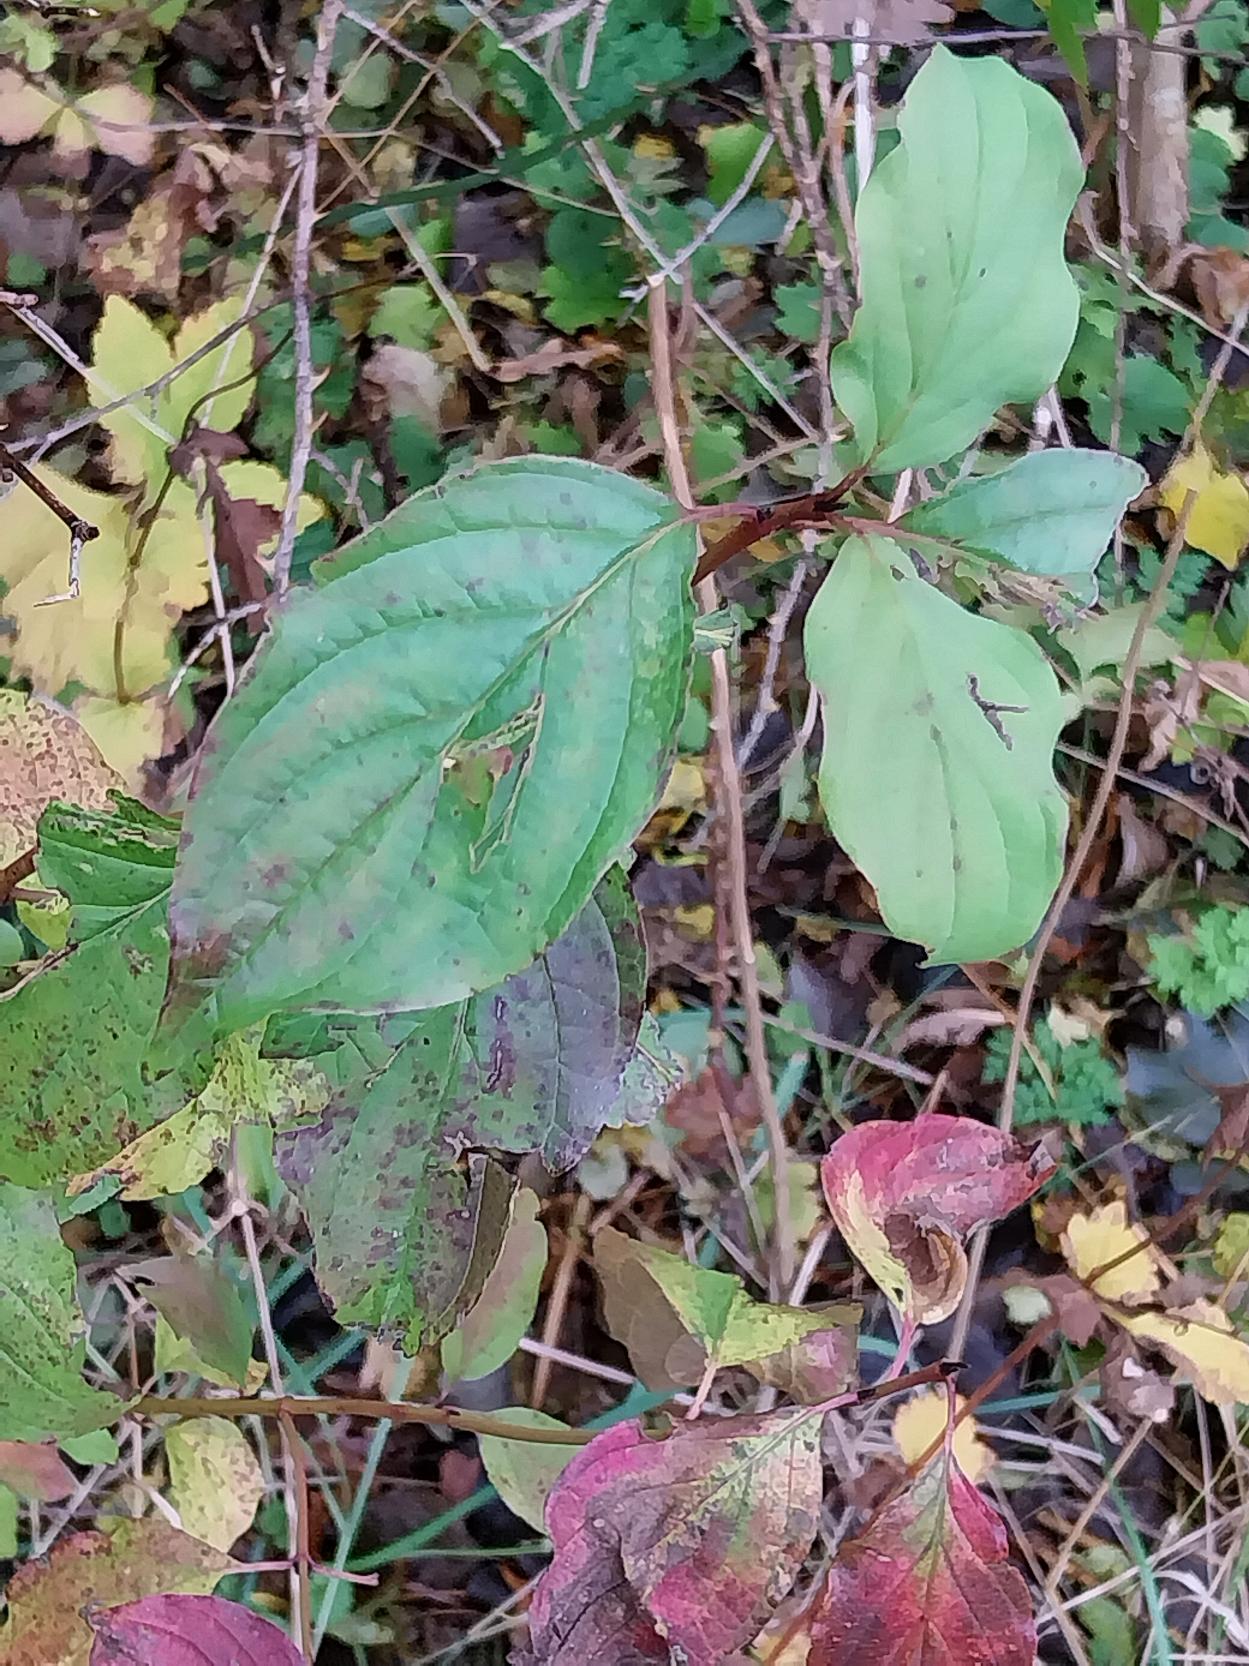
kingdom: Plantae
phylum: Tracheophyta
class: Magnoliopsida
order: Cornales
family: Cornaceae
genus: Cornus
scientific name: Cornus sanguinea
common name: Rød kornel
